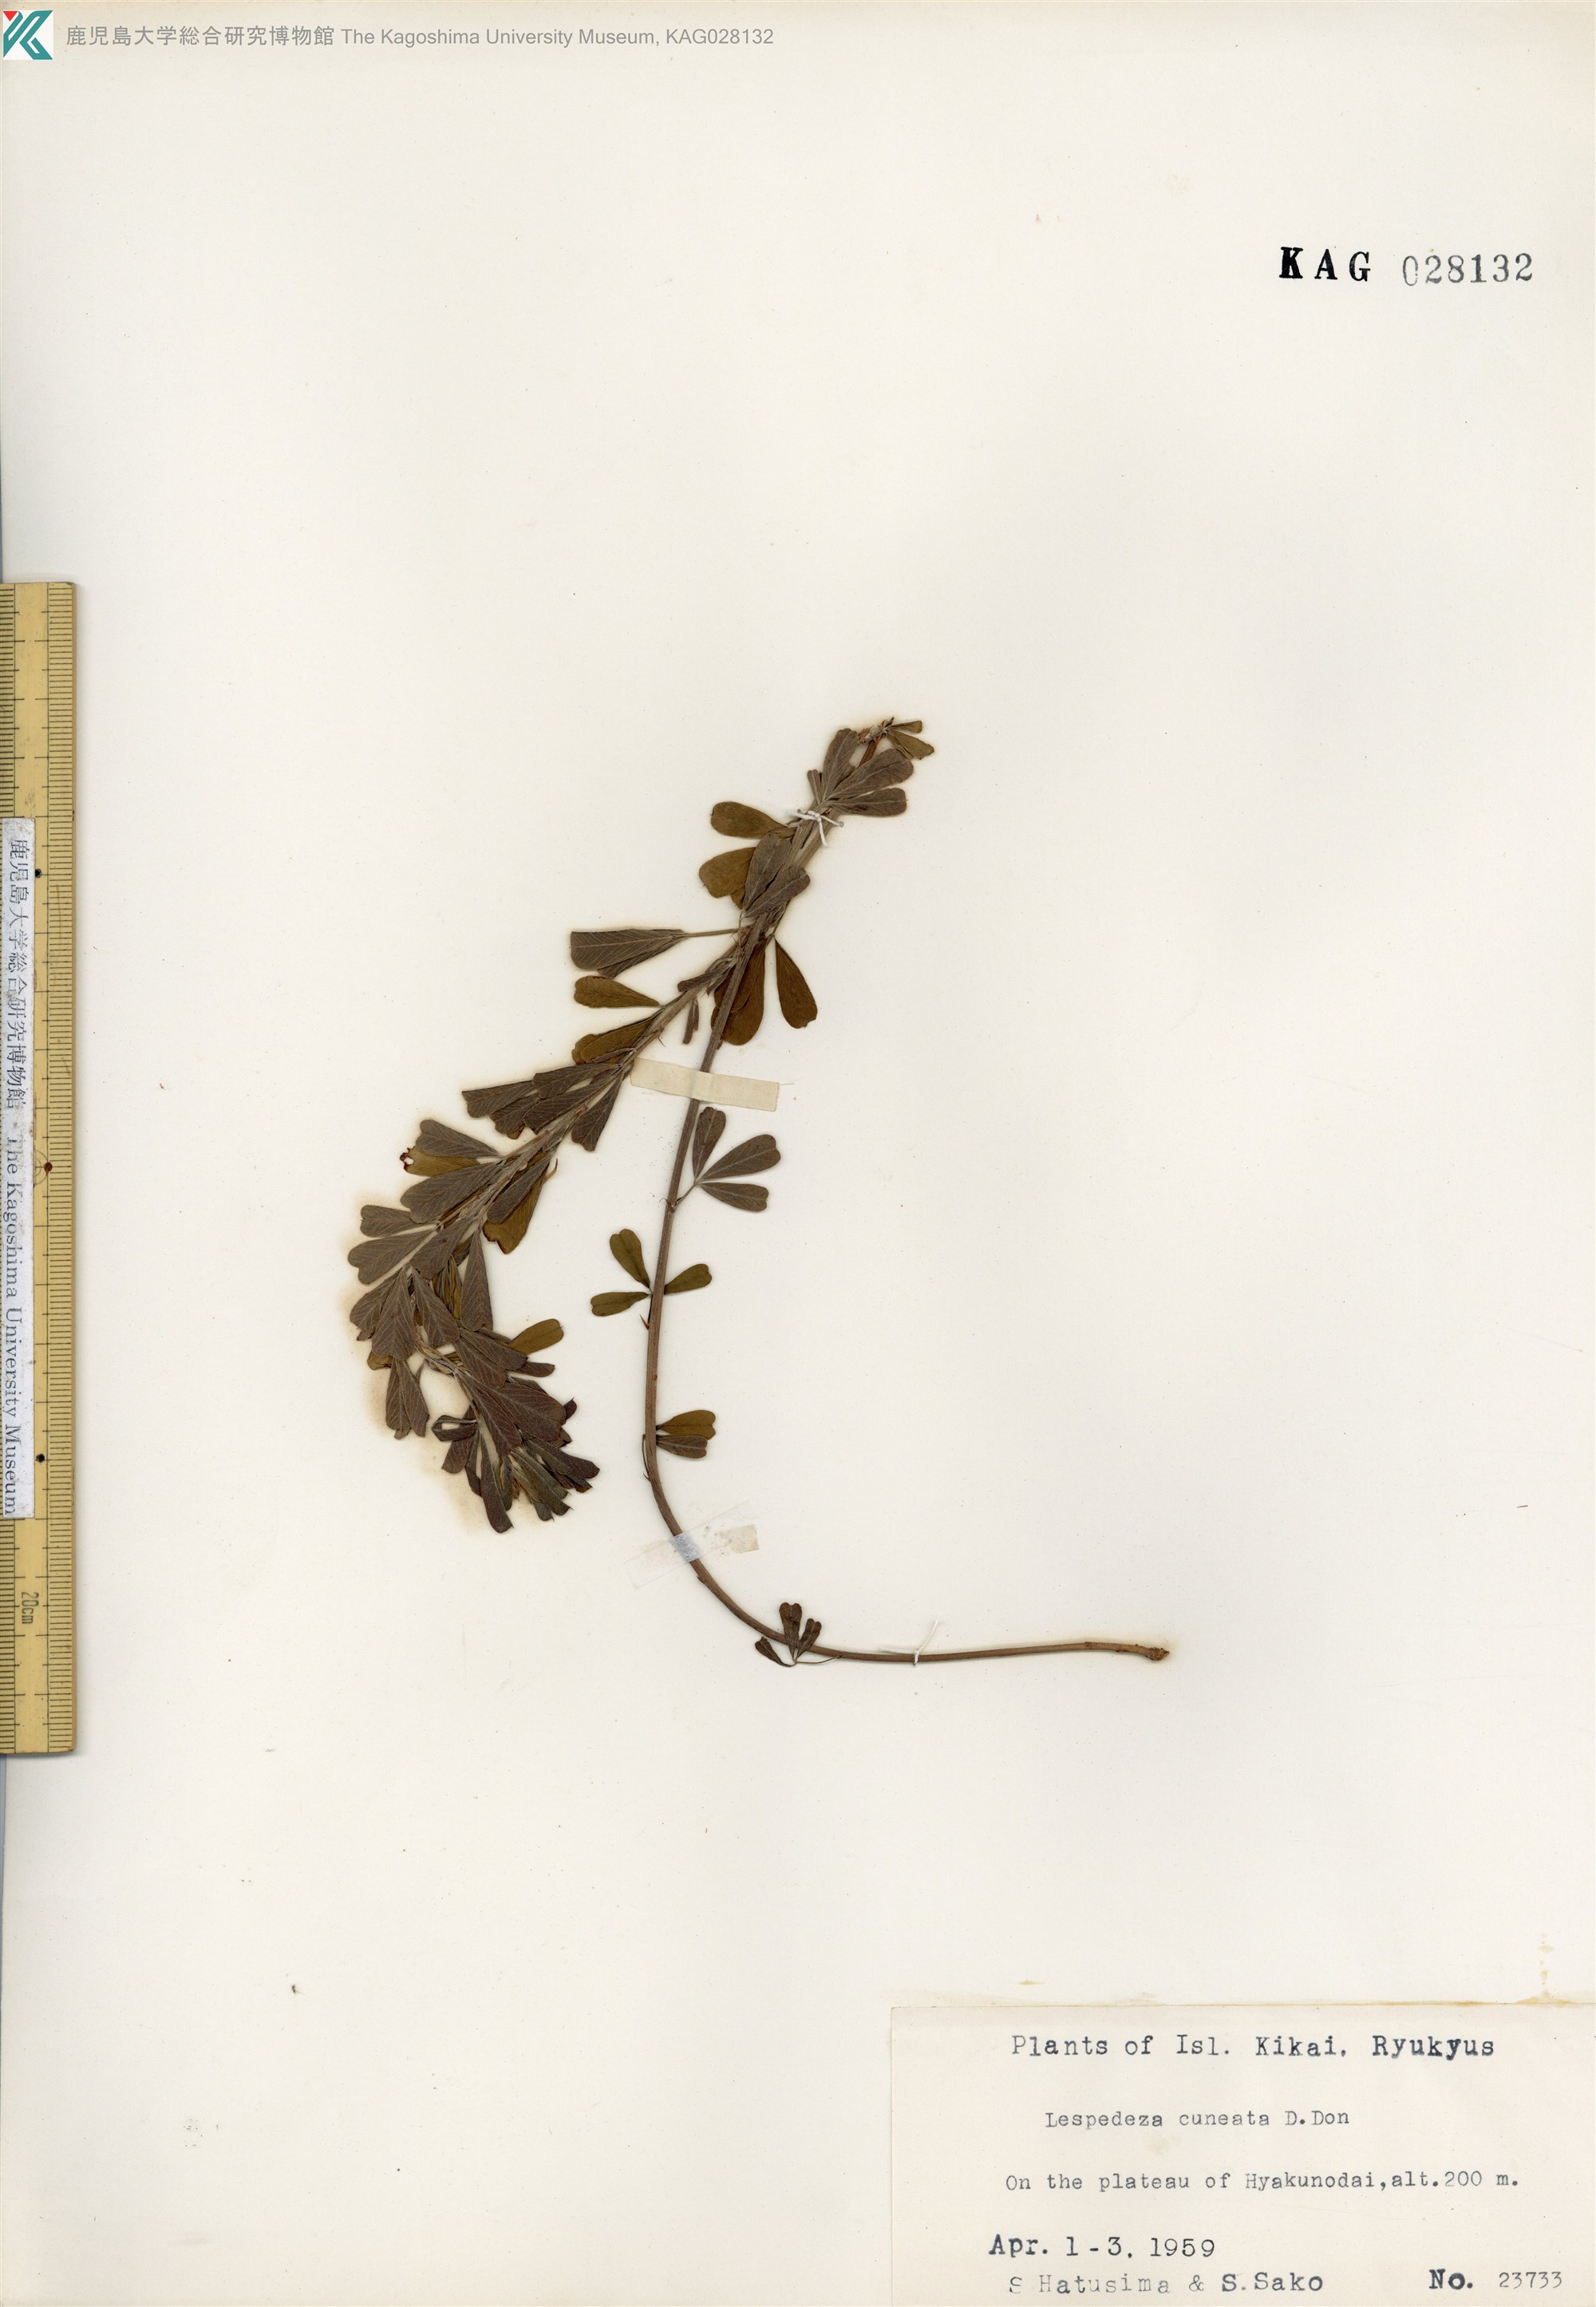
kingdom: Plantae
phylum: Tracheophyta
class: Magnoliopsida
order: Fabales
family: Fabaceae
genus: Lespedeza
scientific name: Lespedeza cuneata
